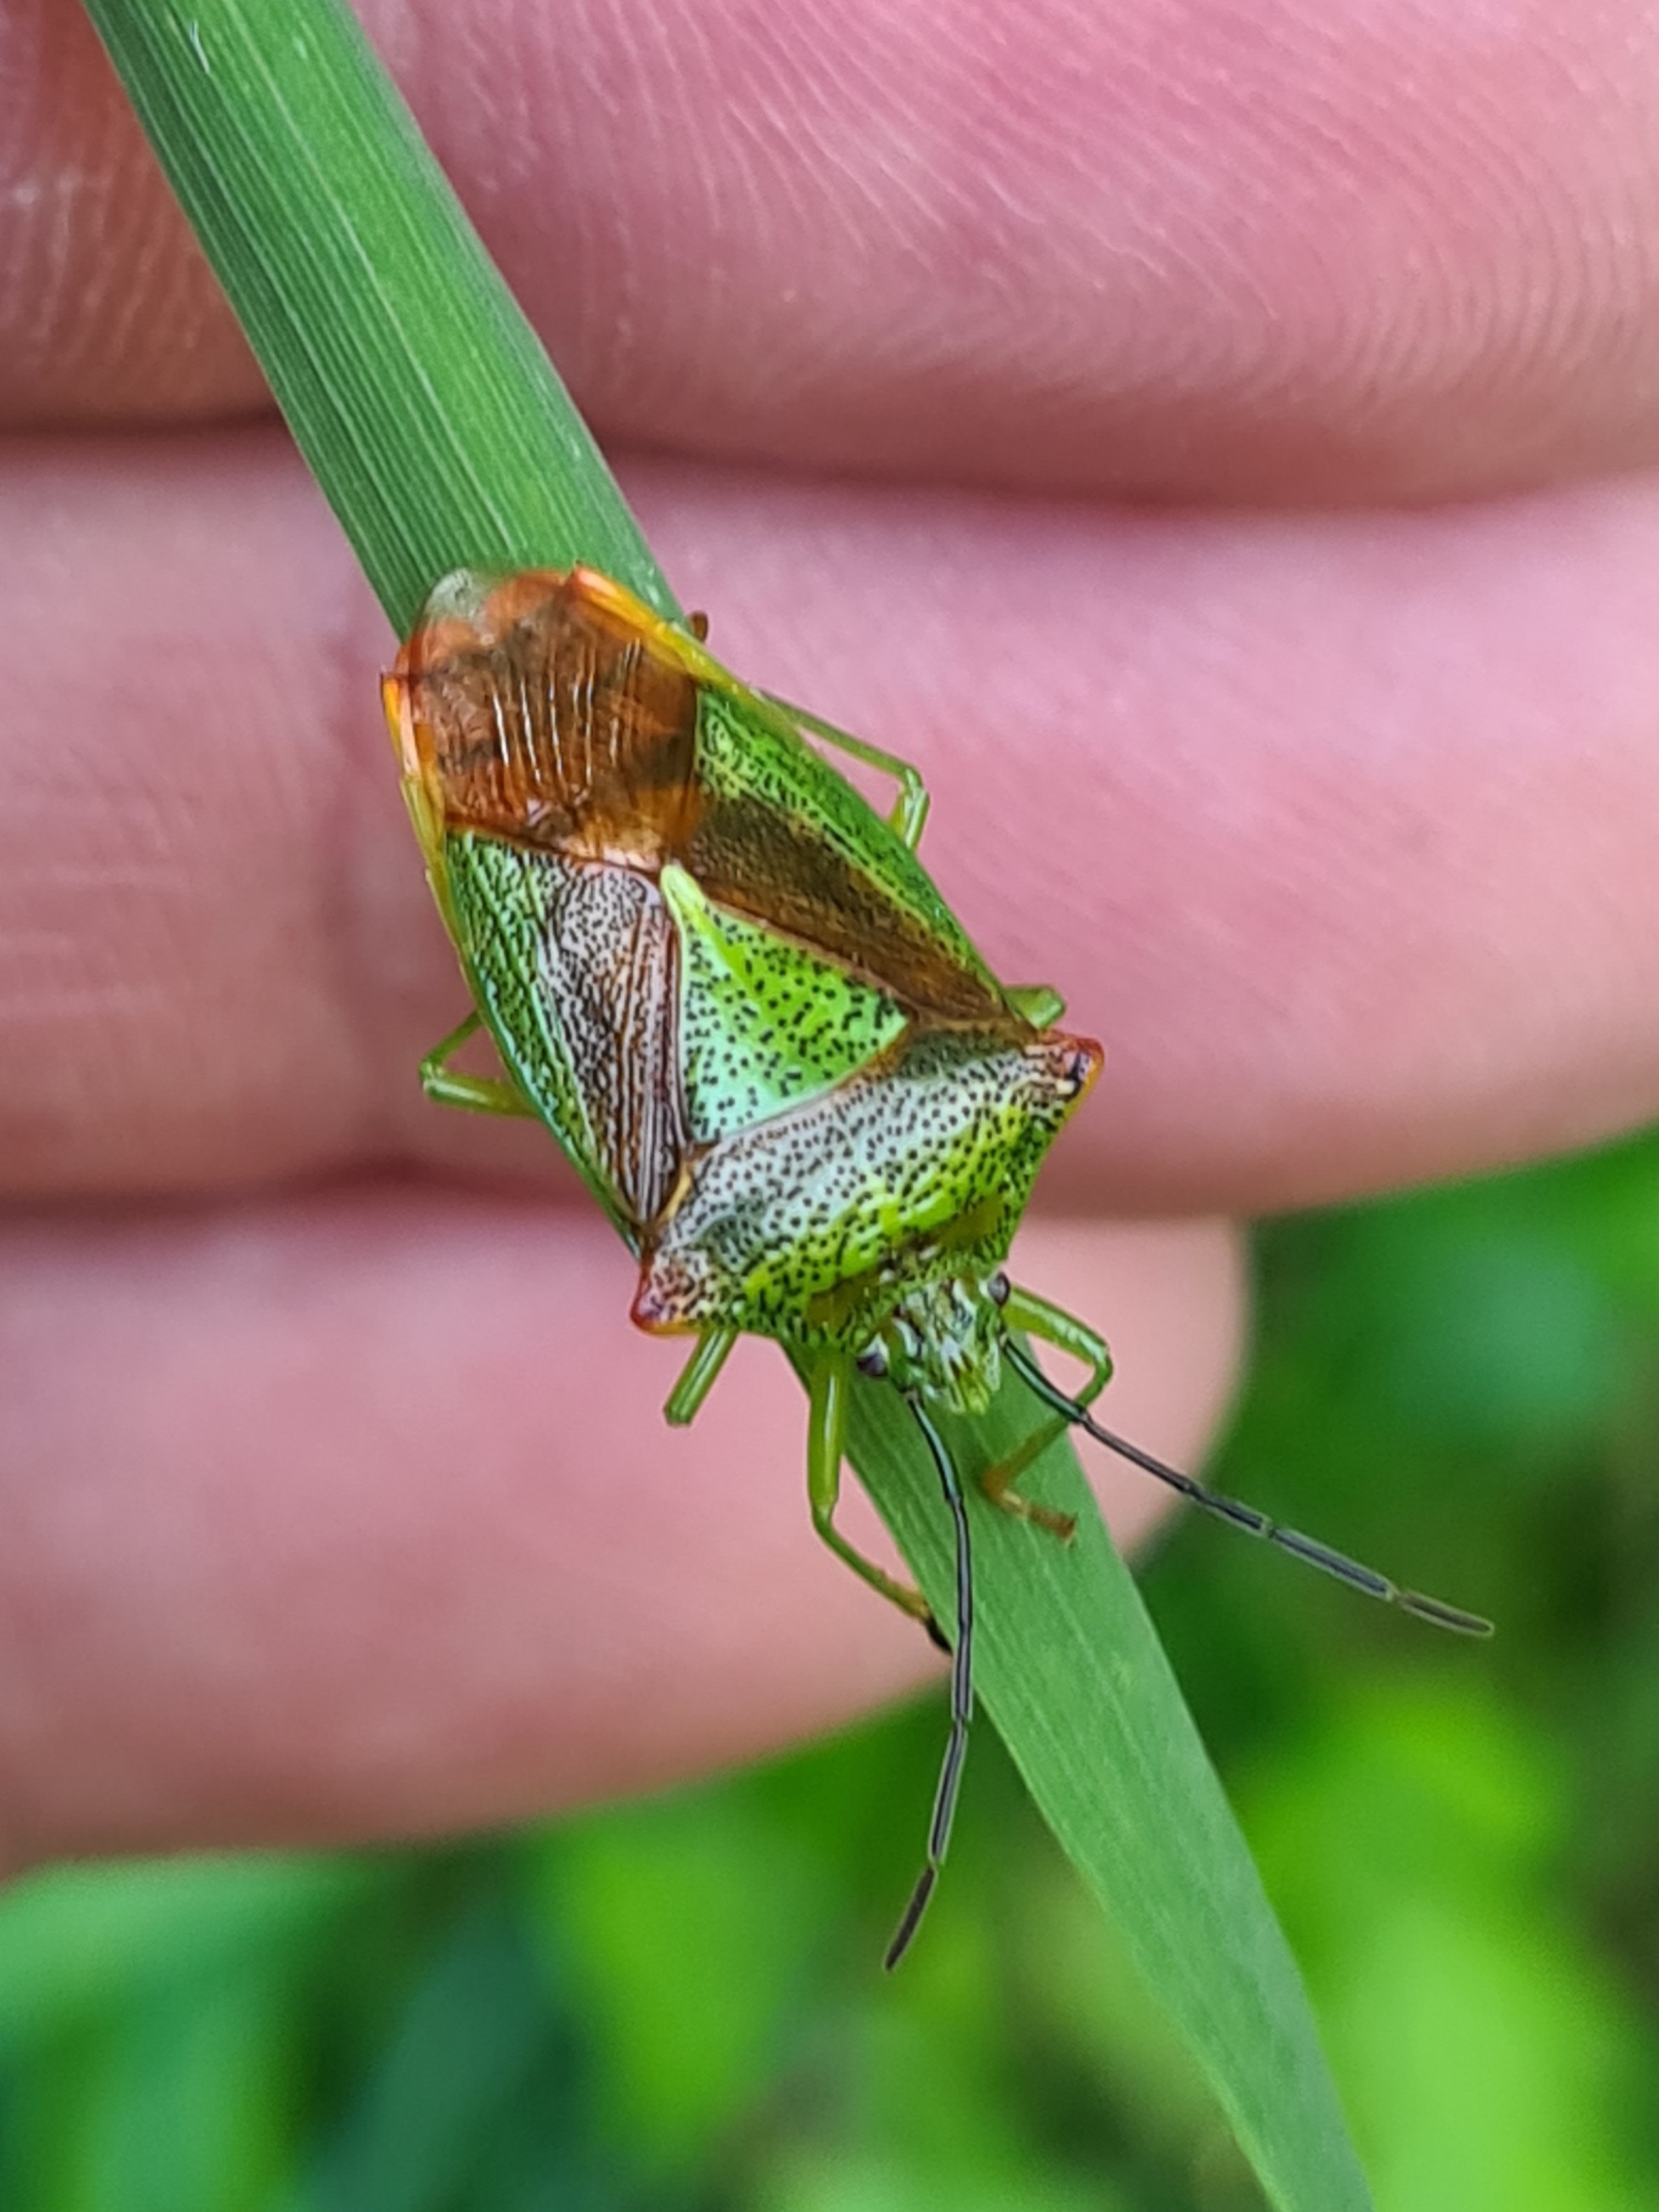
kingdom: Animalia
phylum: Arthropoda
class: Insecta
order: Hemiptera
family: Acanthosomatidae
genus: Acanthosoma
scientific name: Acanthosoma haemorrhoidale
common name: Stor løvtæge
